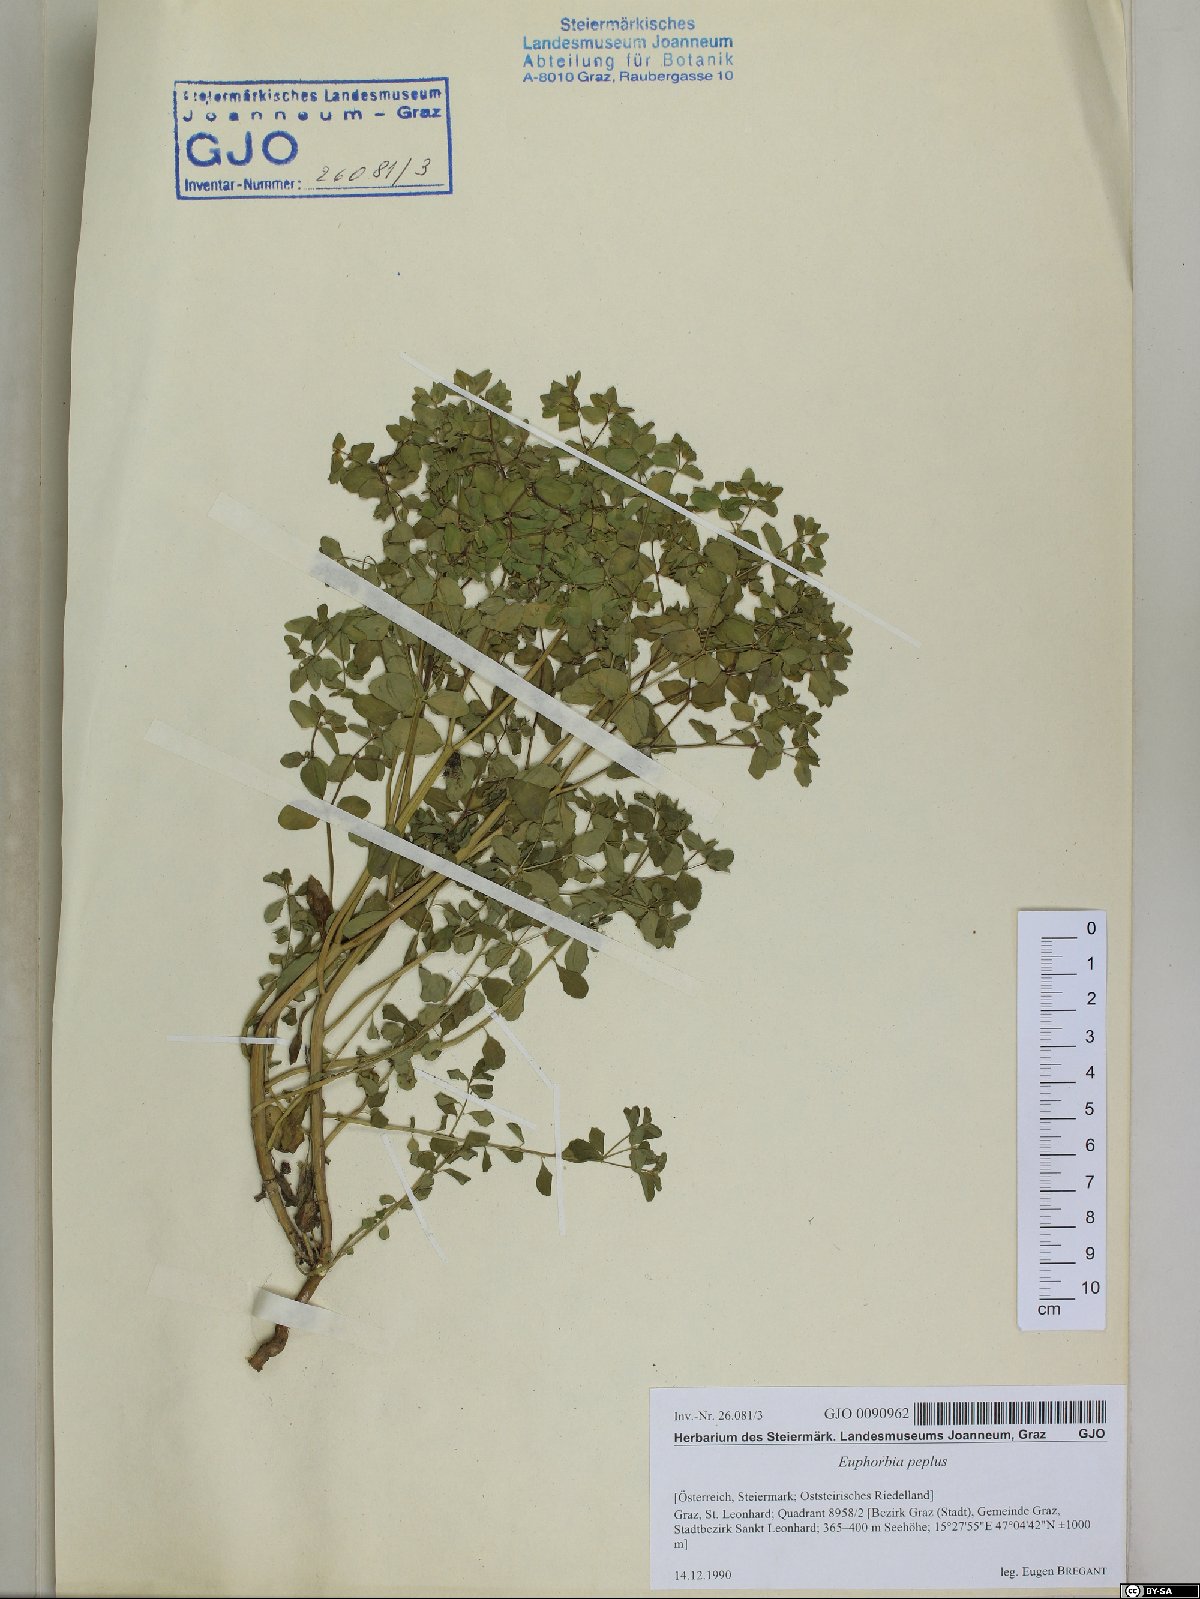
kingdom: Plantae
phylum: Tracheophyta
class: Magnoliopsida
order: Malpighiales
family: Euphorbiaceae
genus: Euphorbia
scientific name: Euphorbia peplus
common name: Petty spurge
